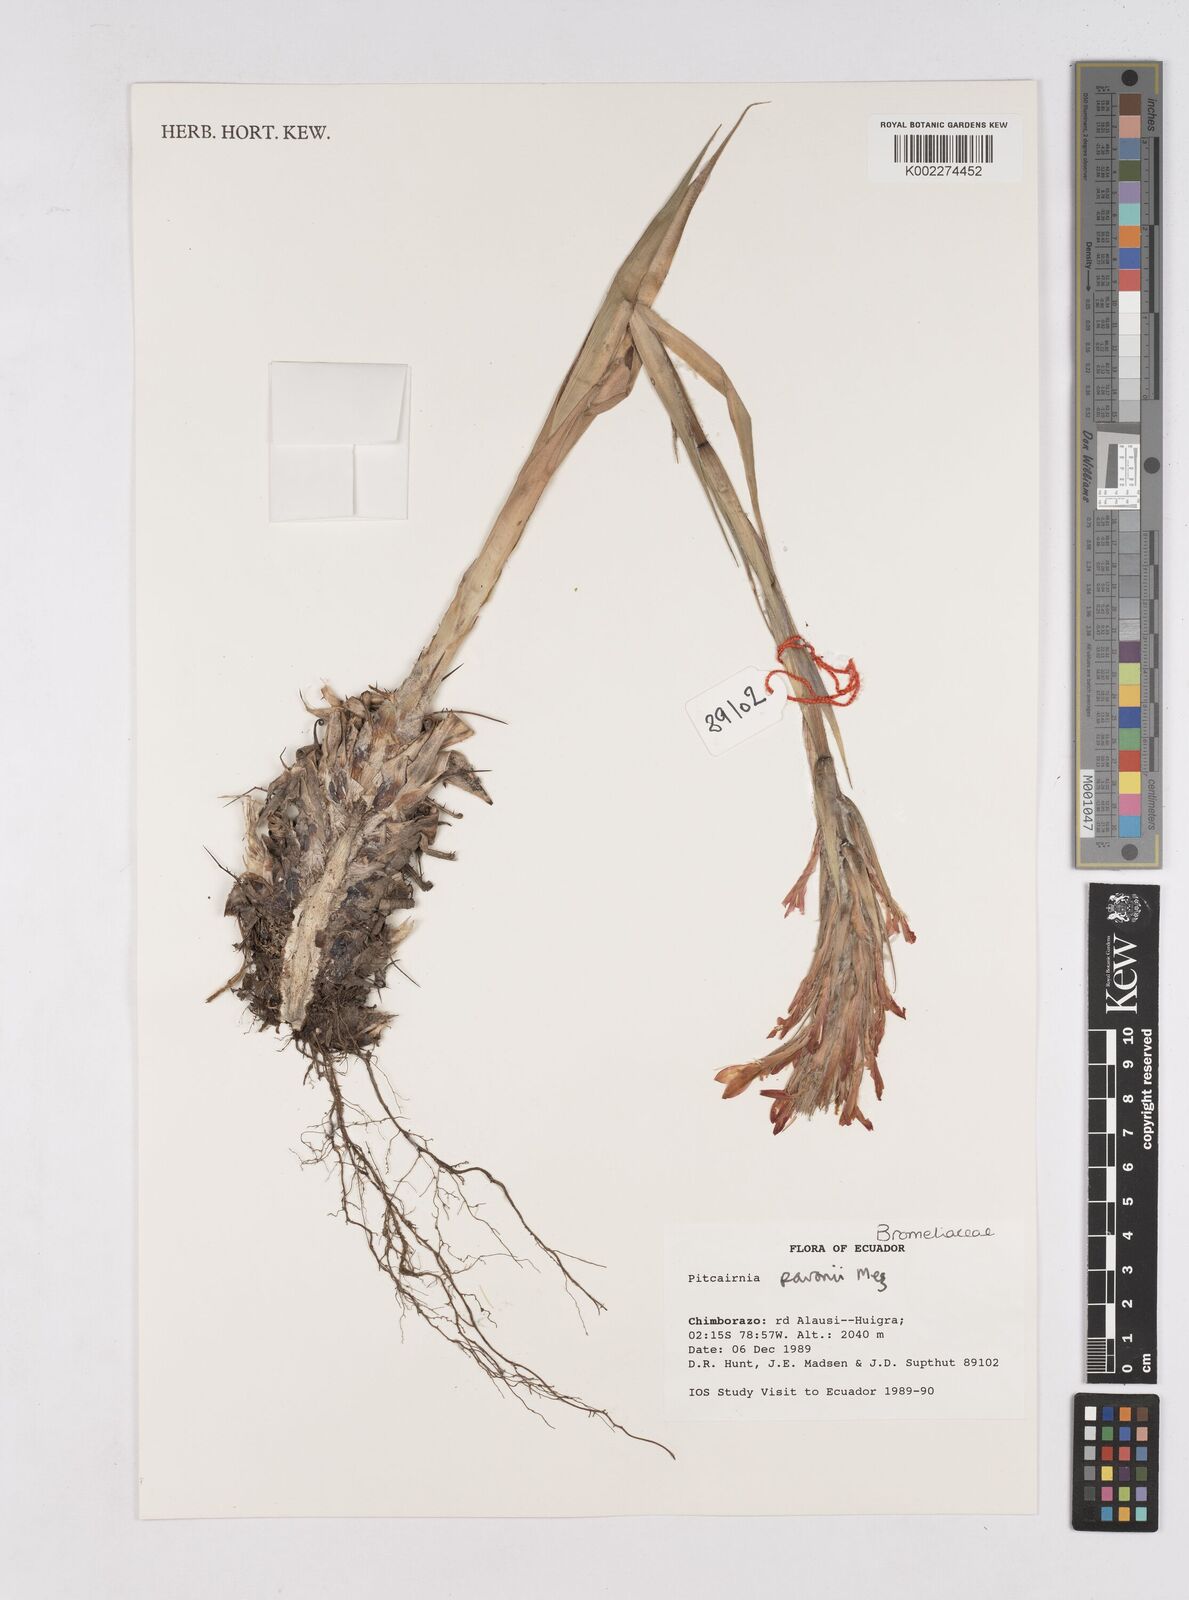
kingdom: Plantae
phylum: Tracheophyta
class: Liliopsida
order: Poales
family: Bromeliaceae
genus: Pitcairnia
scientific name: Pitcairnia pavonii
